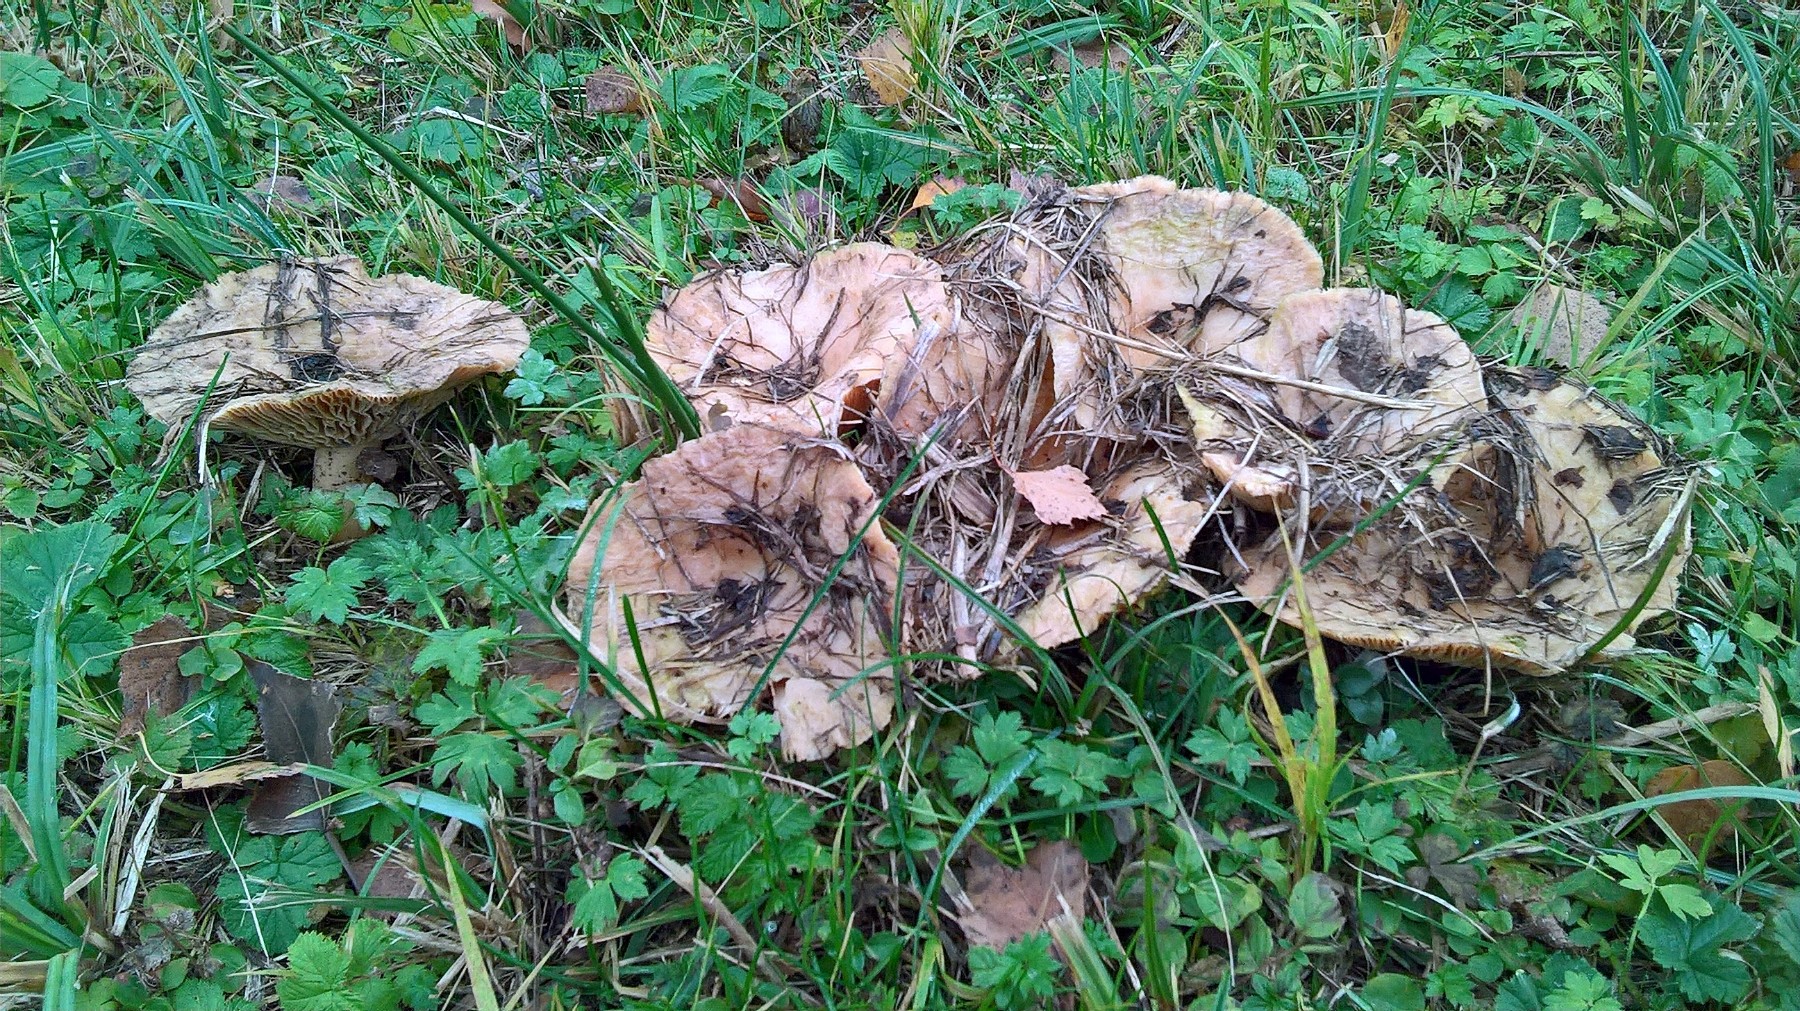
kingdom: Fungi
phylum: Basidiomycota
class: Agaricomycetes
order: Russulales
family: Russulaceae
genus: Lactarius
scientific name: Lactarius
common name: mælkehat
